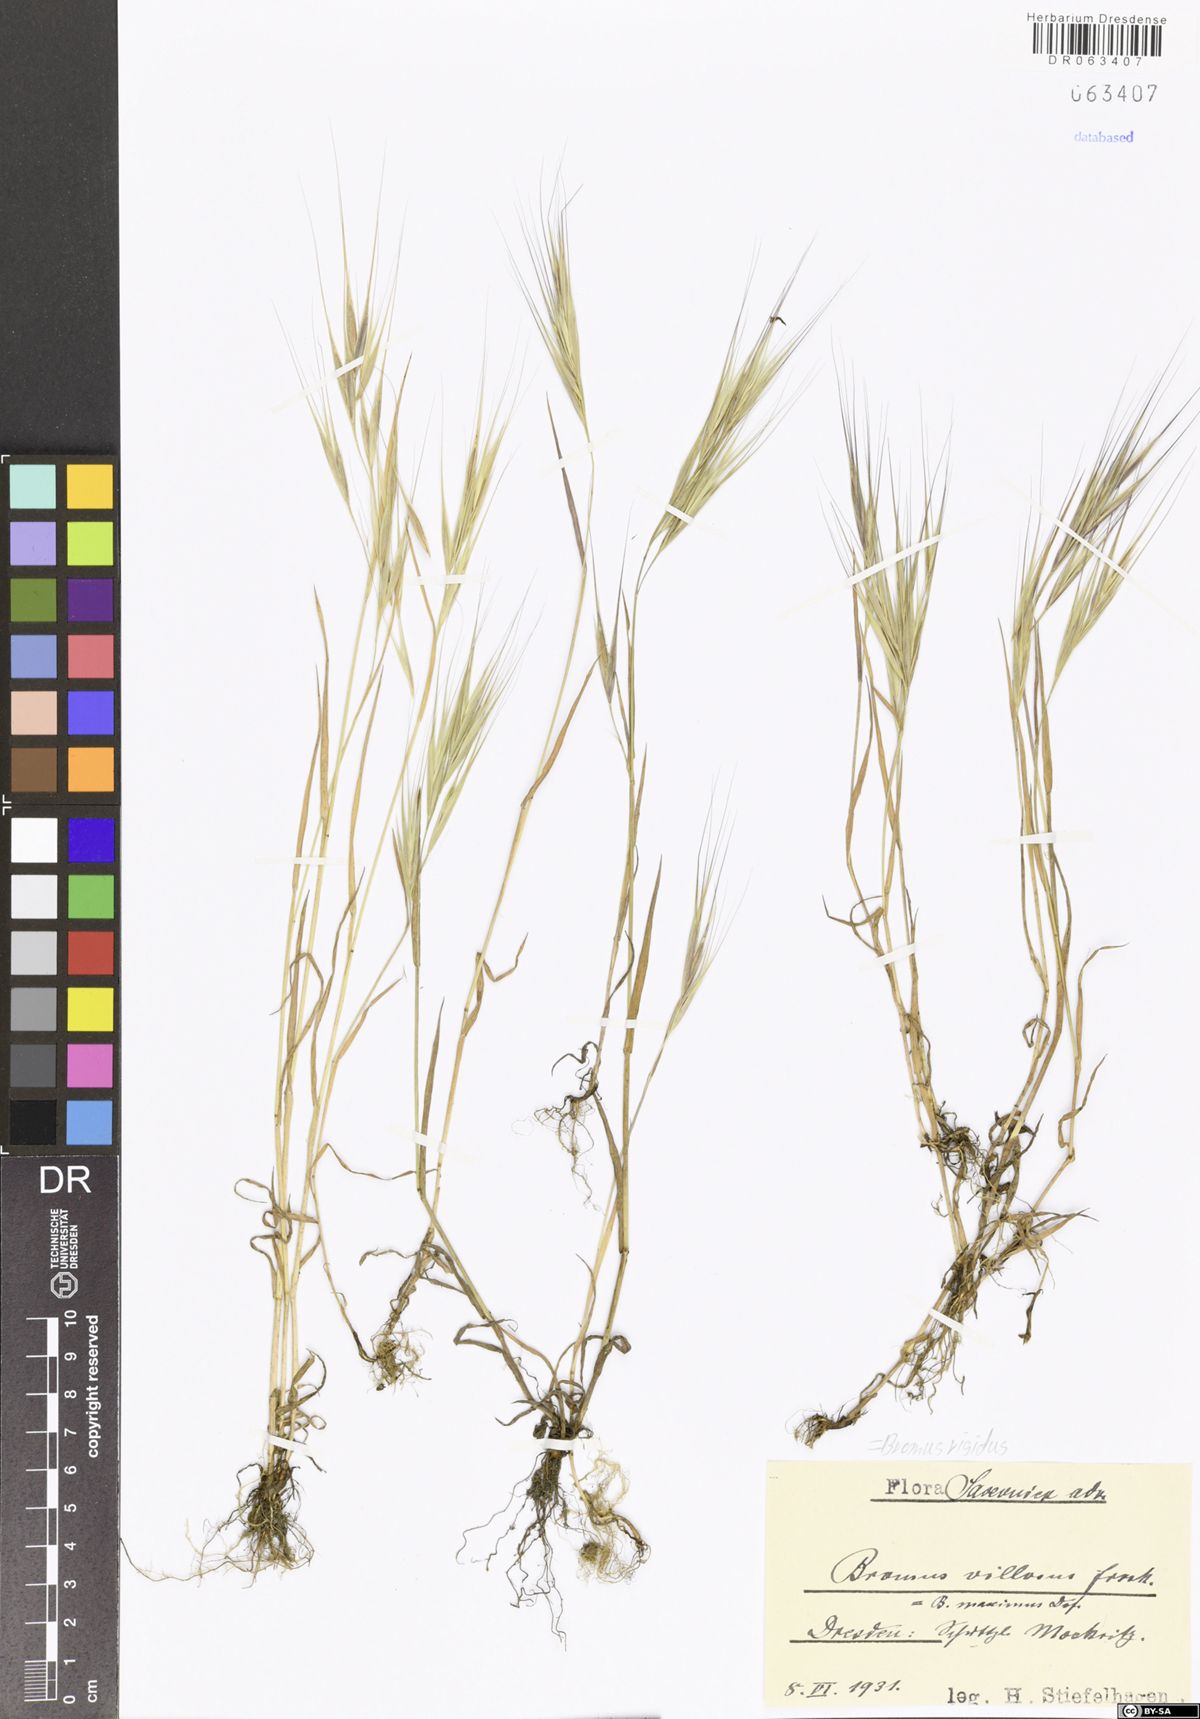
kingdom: Plantae
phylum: Tracheophyta
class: Liliopsida
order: Poales
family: Poaceae
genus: Bromus
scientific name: Bromus rigidus
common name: Ripgut brome
